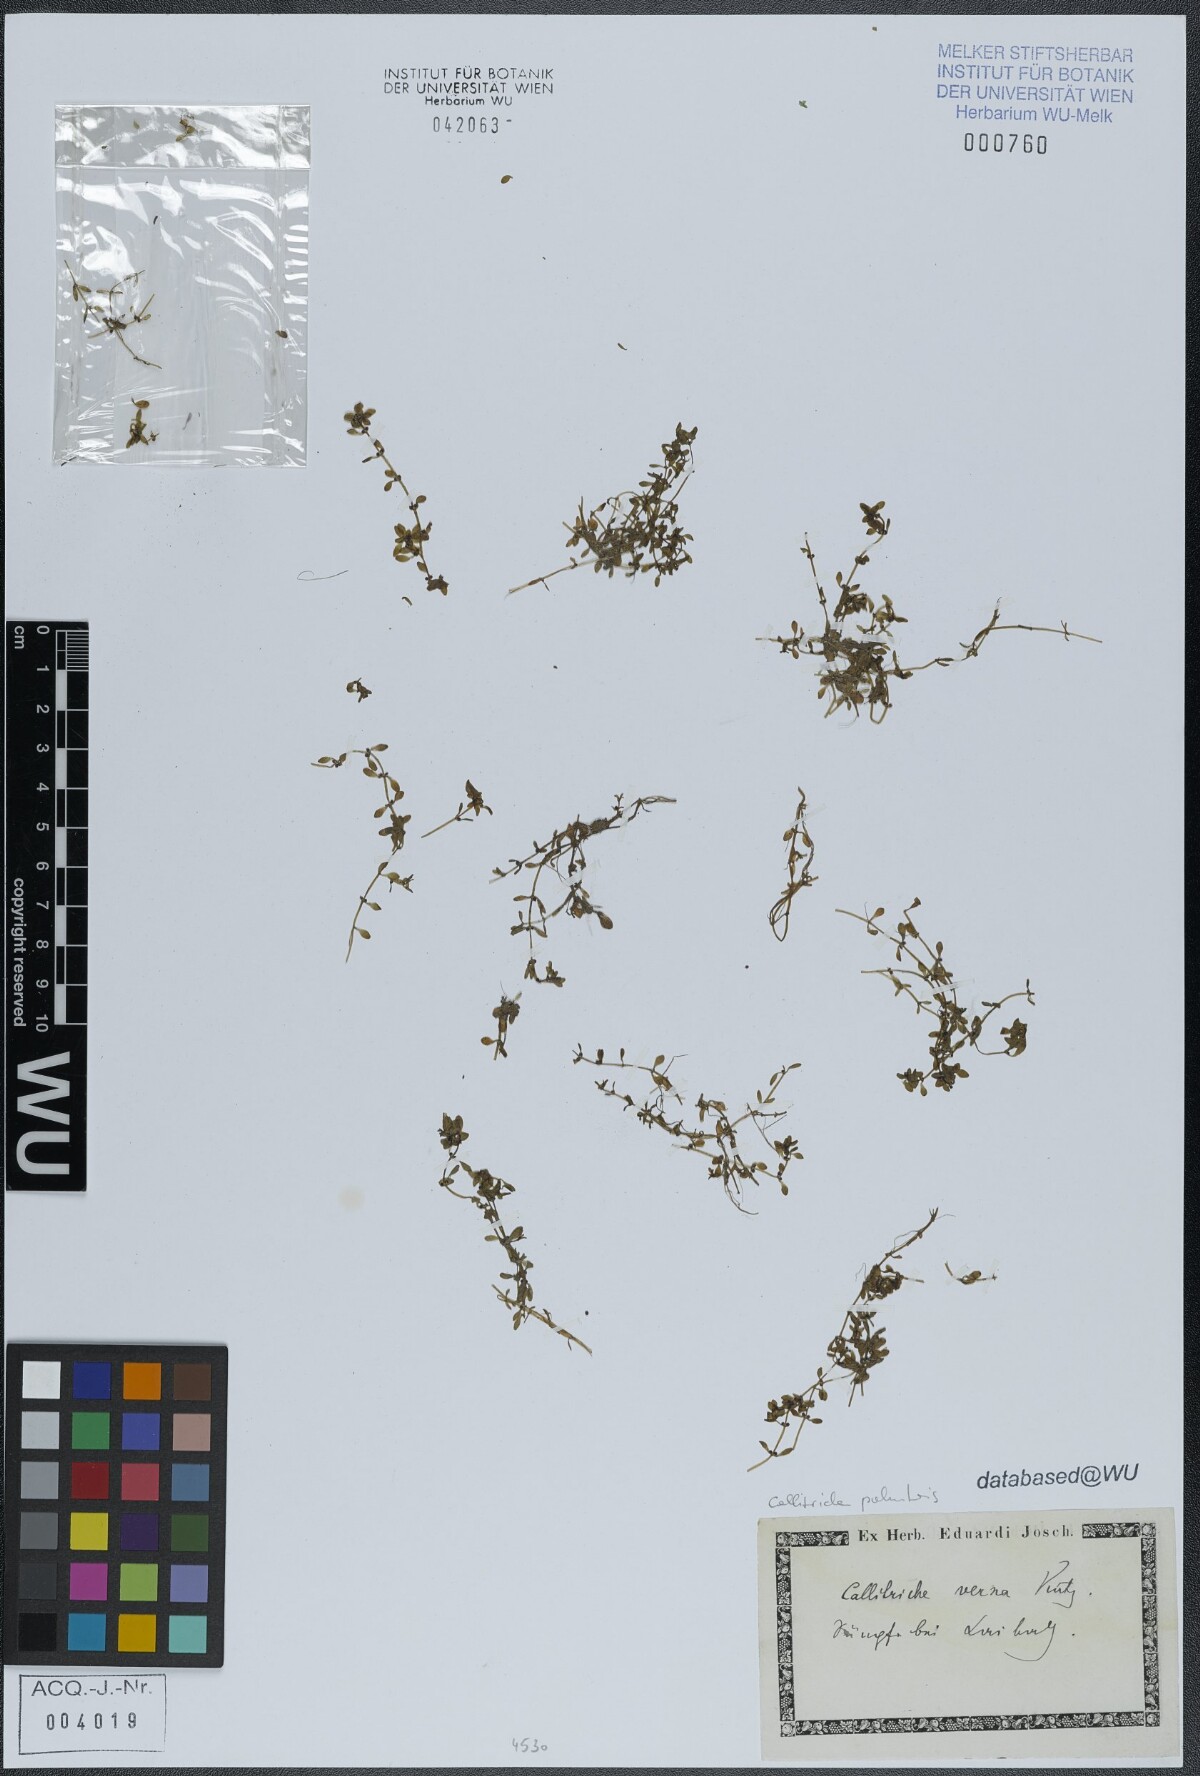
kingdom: Plantae
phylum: Tracheophyta
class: Magnoliopsida
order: Lamiales
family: Plantaginaceae
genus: Callitriche
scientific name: Callitriche palustris
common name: Spring water-starwort
